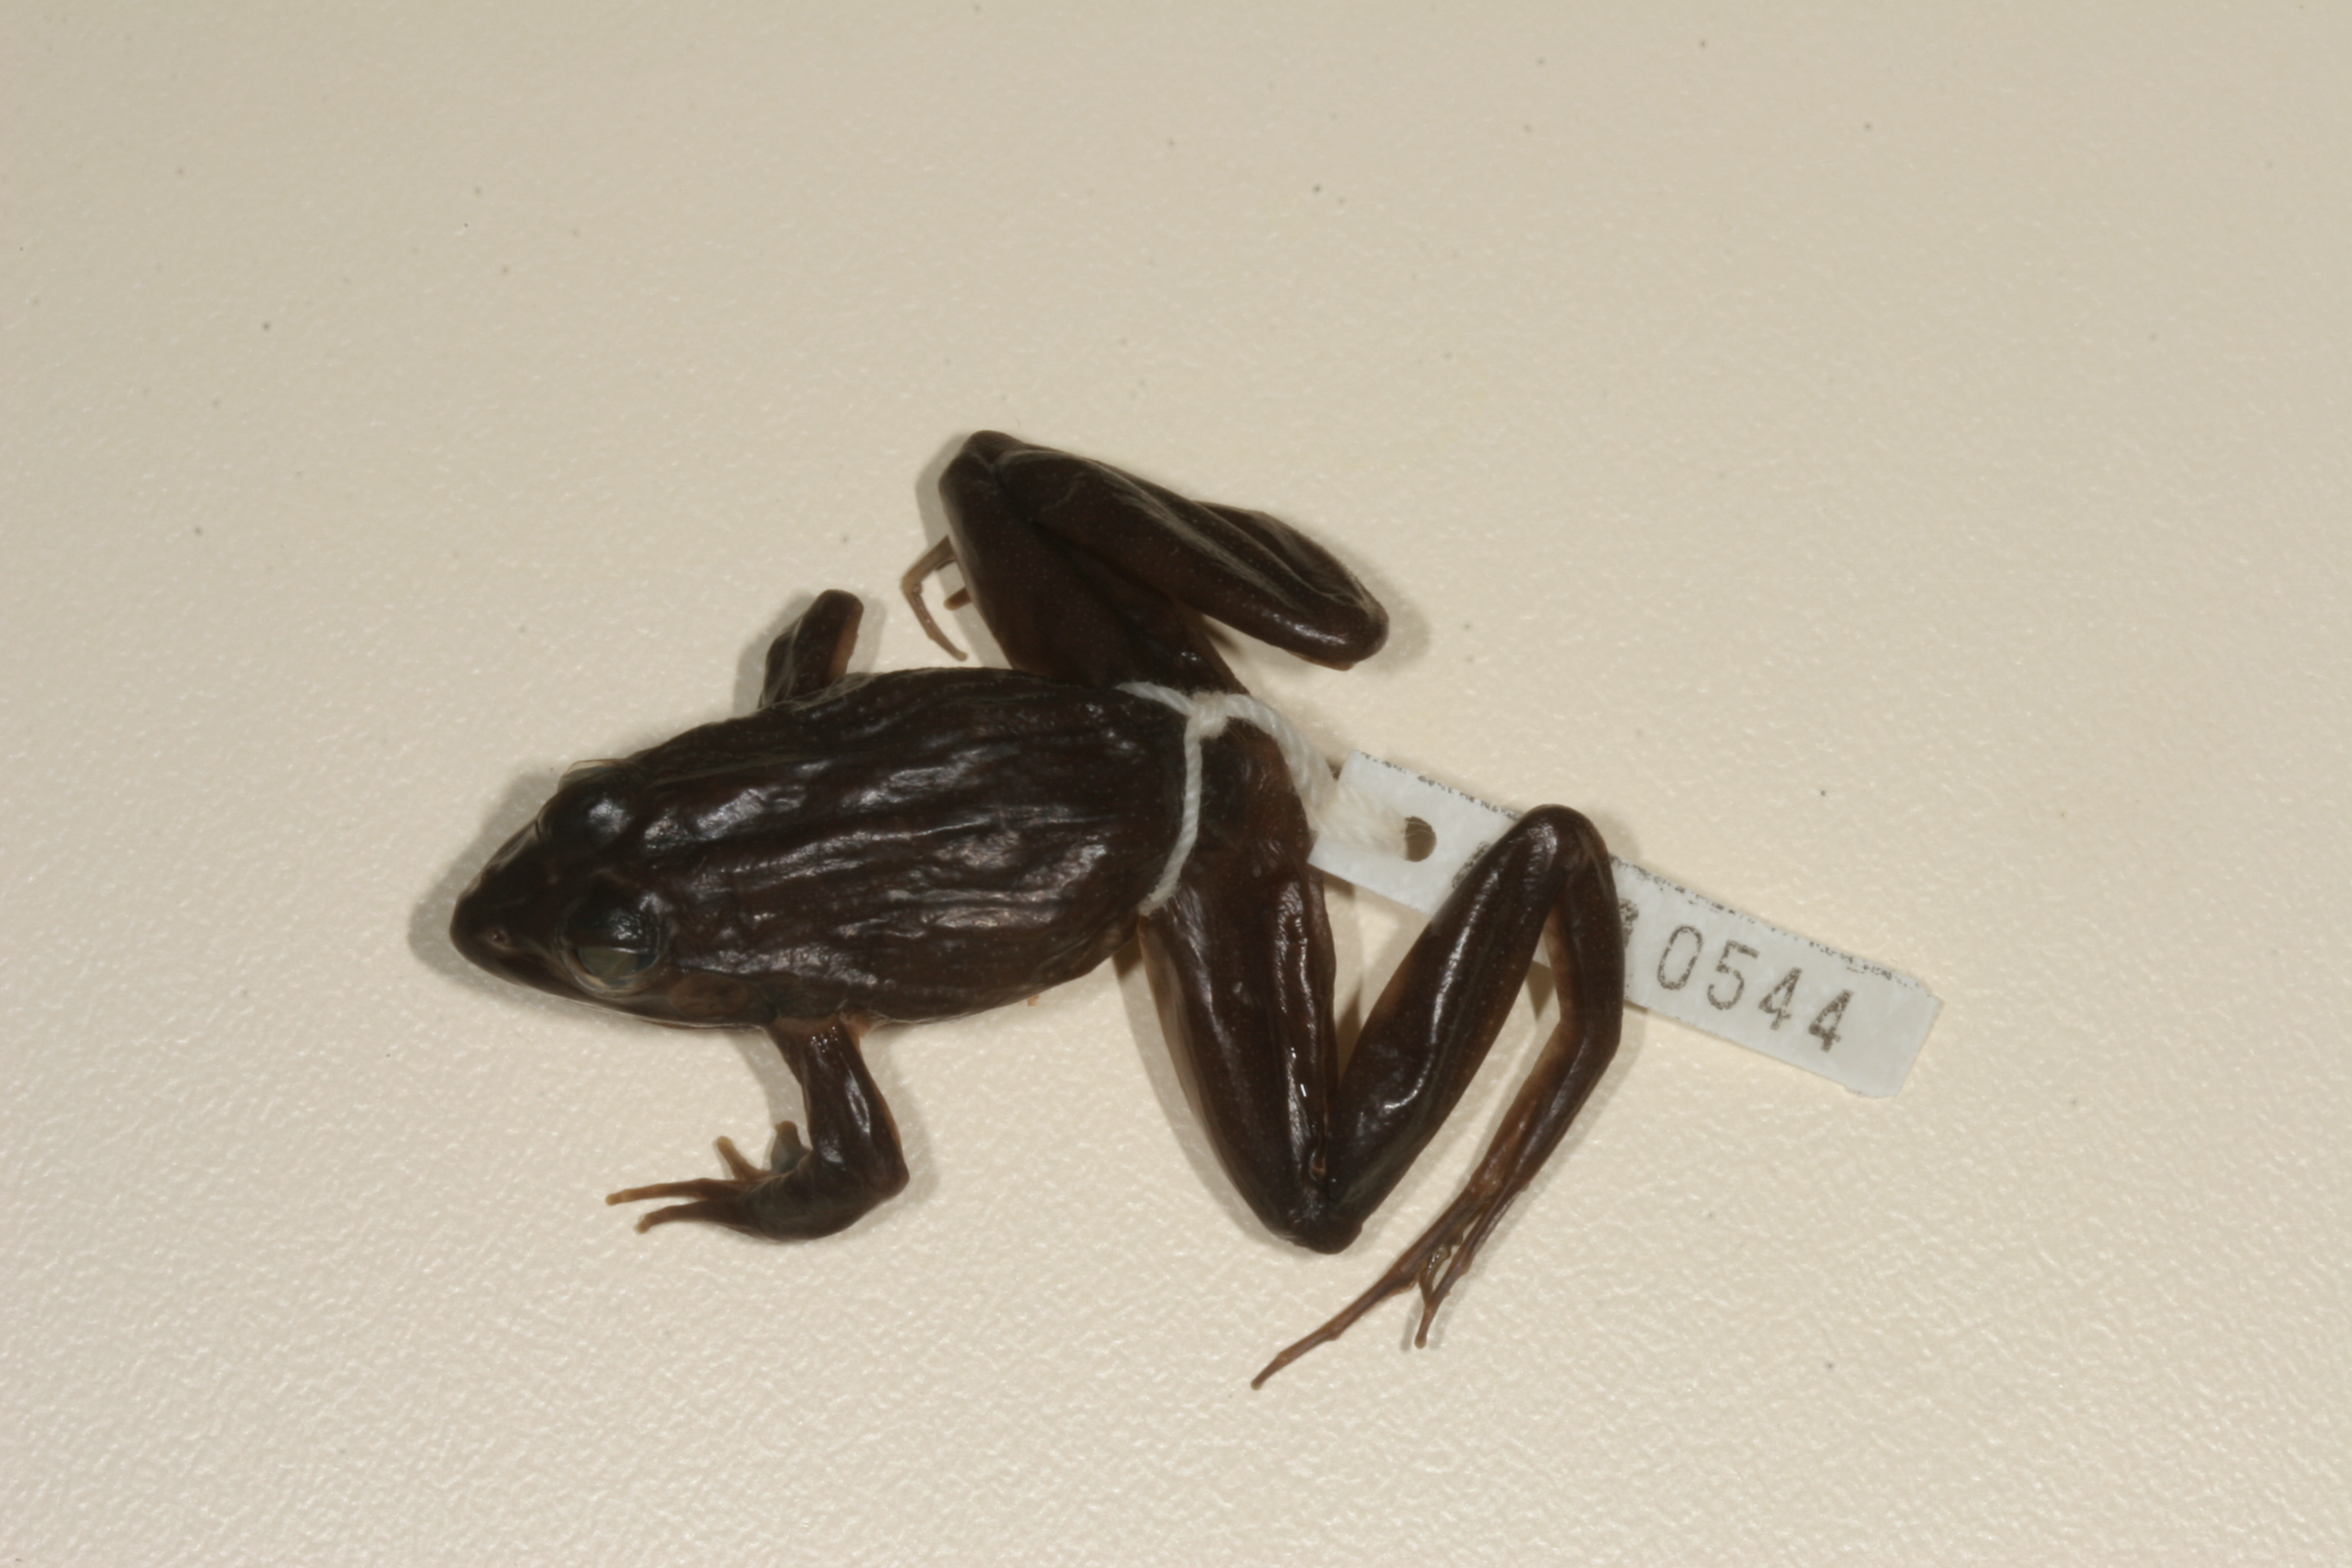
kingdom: Animalia
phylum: Chordata
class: Amphibia
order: Anura
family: Pyxicephalidae
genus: Amietia
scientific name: Amietia angolensis
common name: Dusky-throated frog
